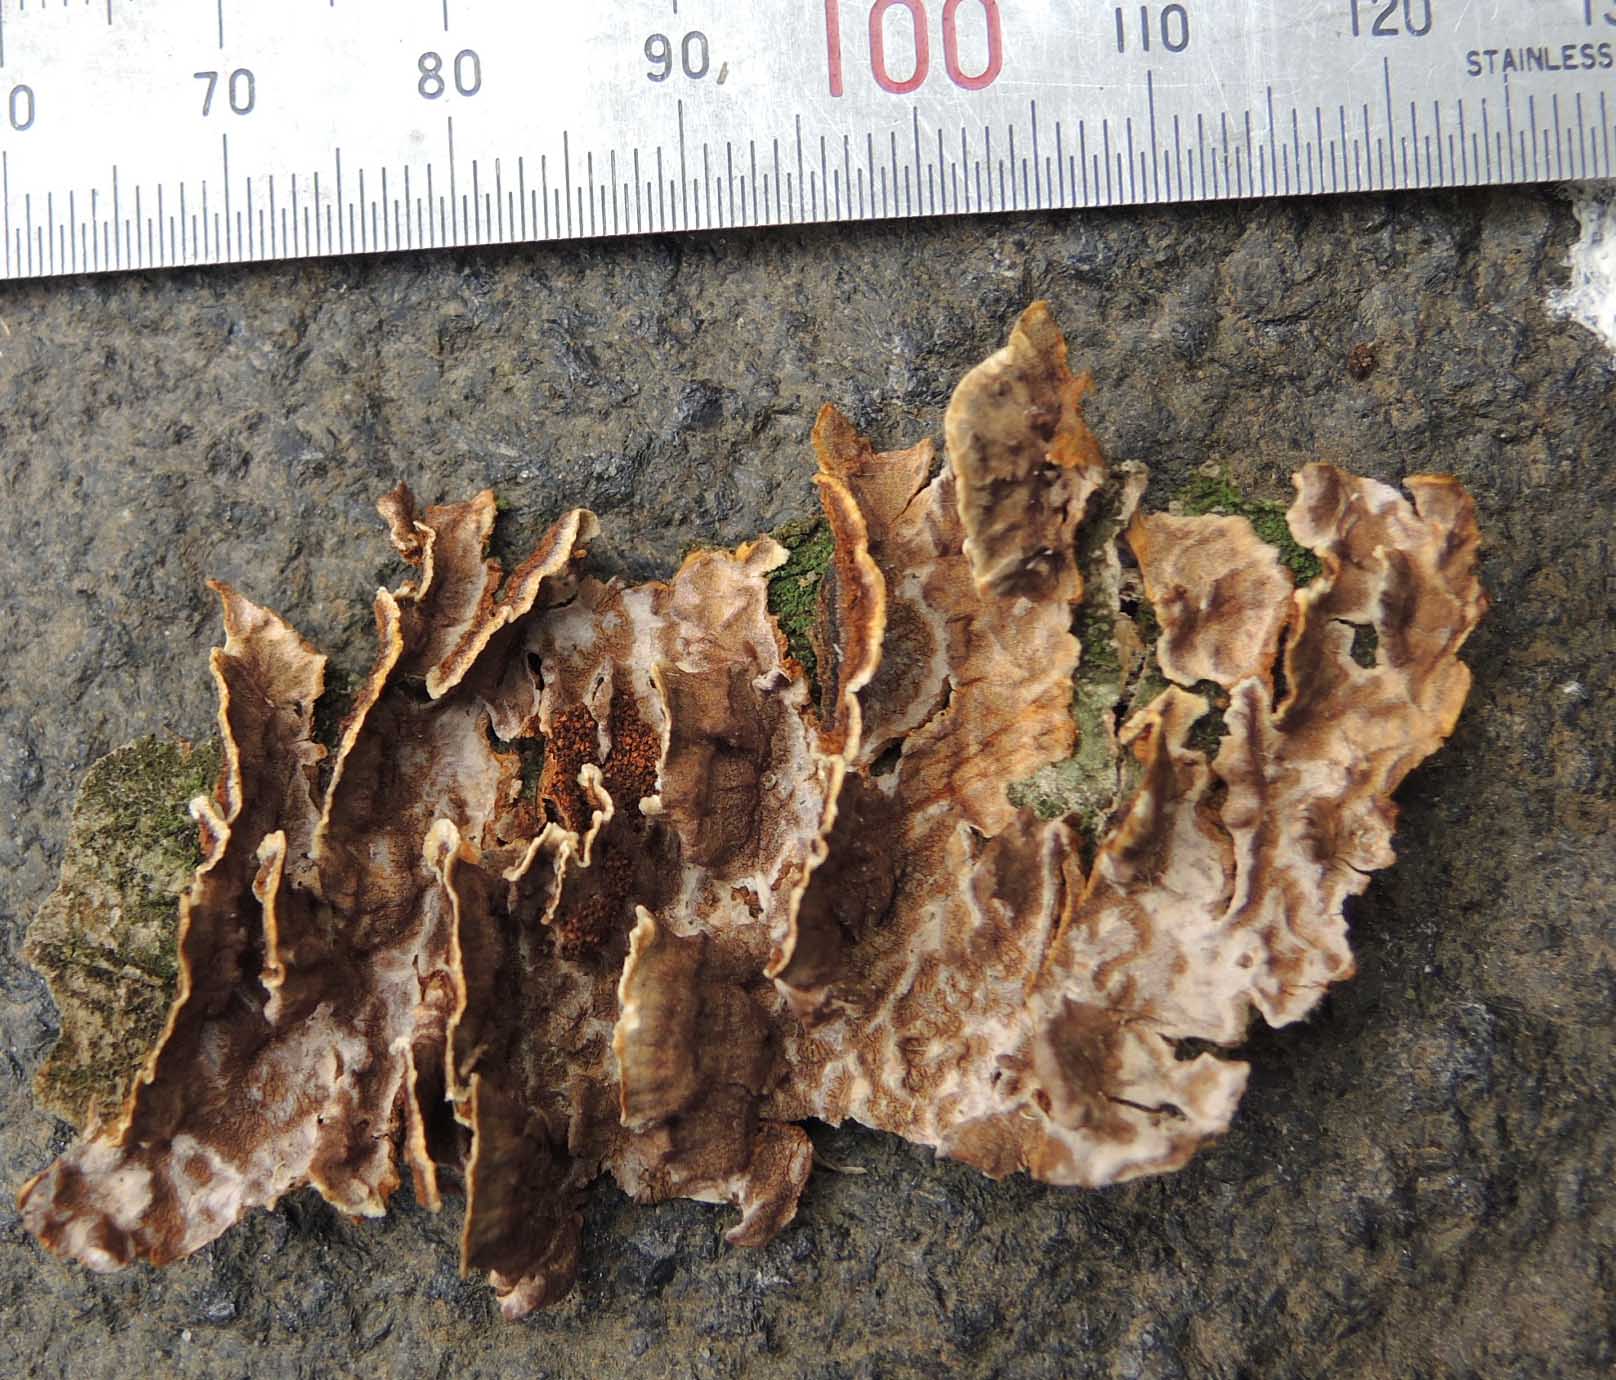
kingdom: Fungi
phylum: Basidiomycota
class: Agaricomycetes
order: Russulales
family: Stereaceae
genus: Stereum
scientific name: Stereum gausapatum
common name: tynd lædersvamp
